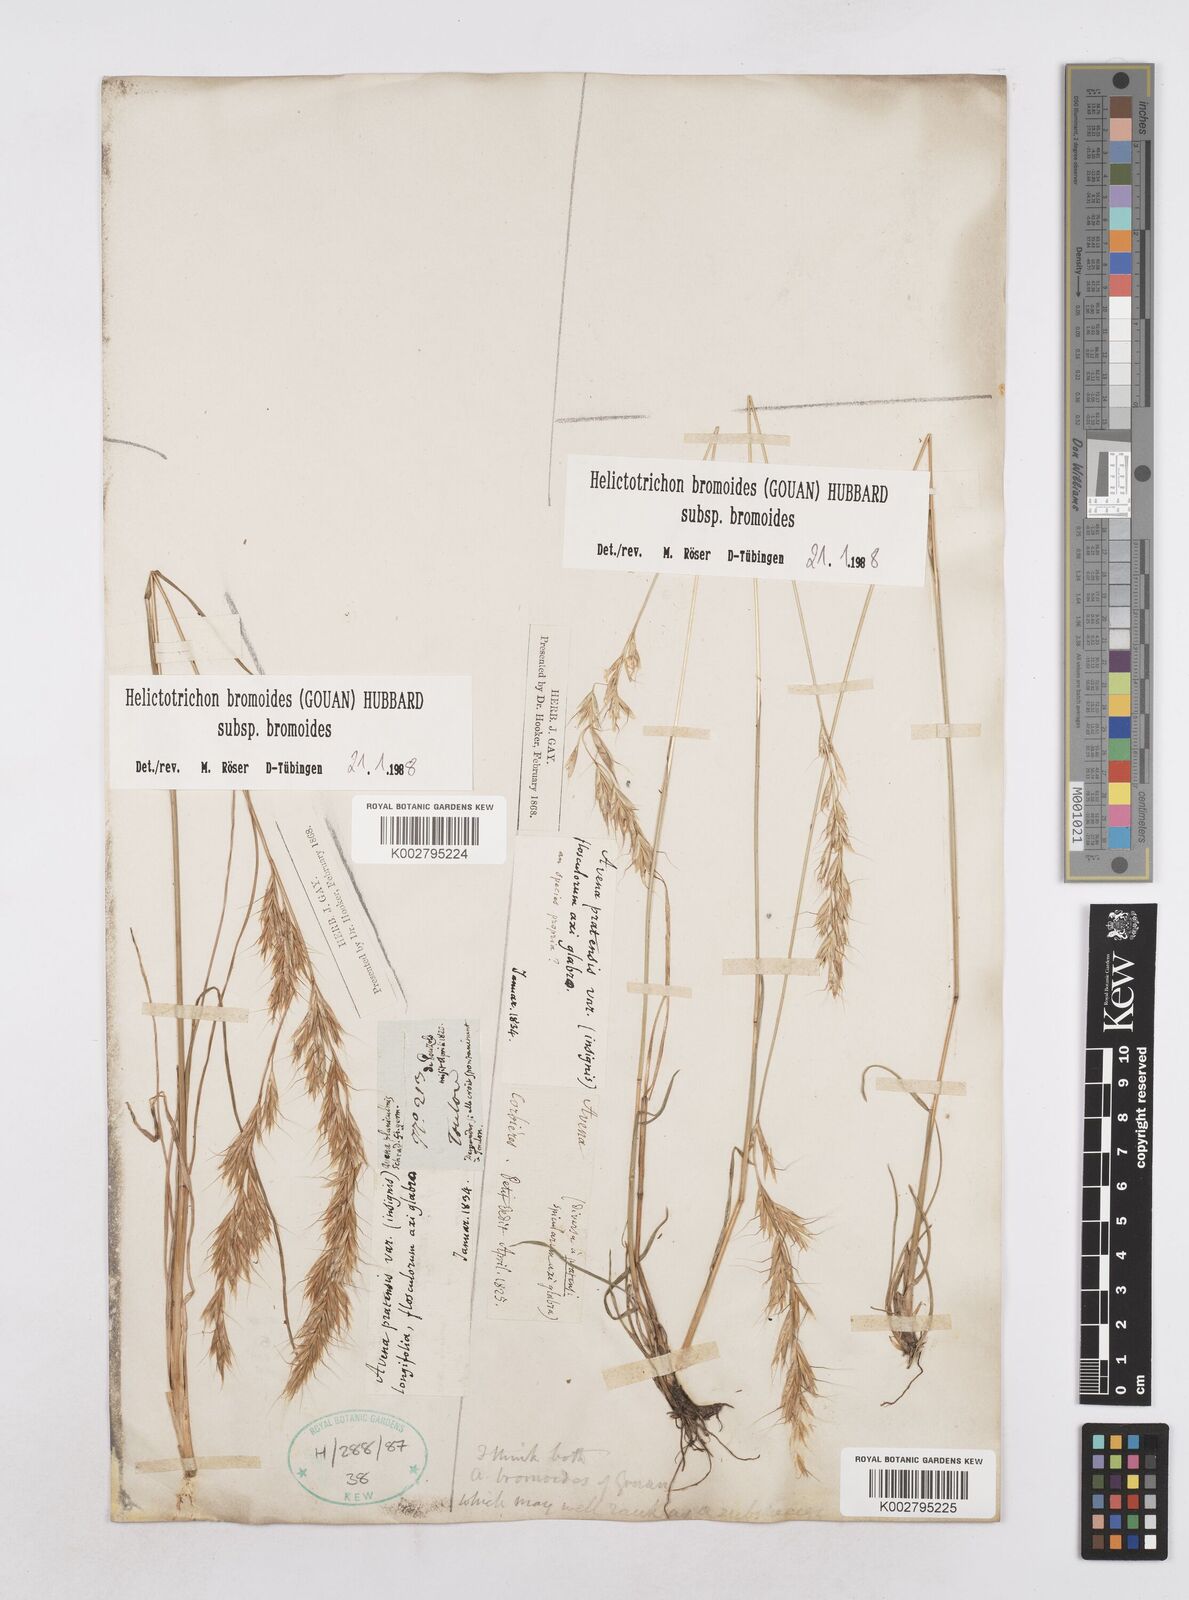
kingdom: Plantae
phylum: Tracheophyta
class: Liliopsida
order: Poales
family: Poaceae
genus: Helictochloa
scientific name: Helictochloa bromoides
